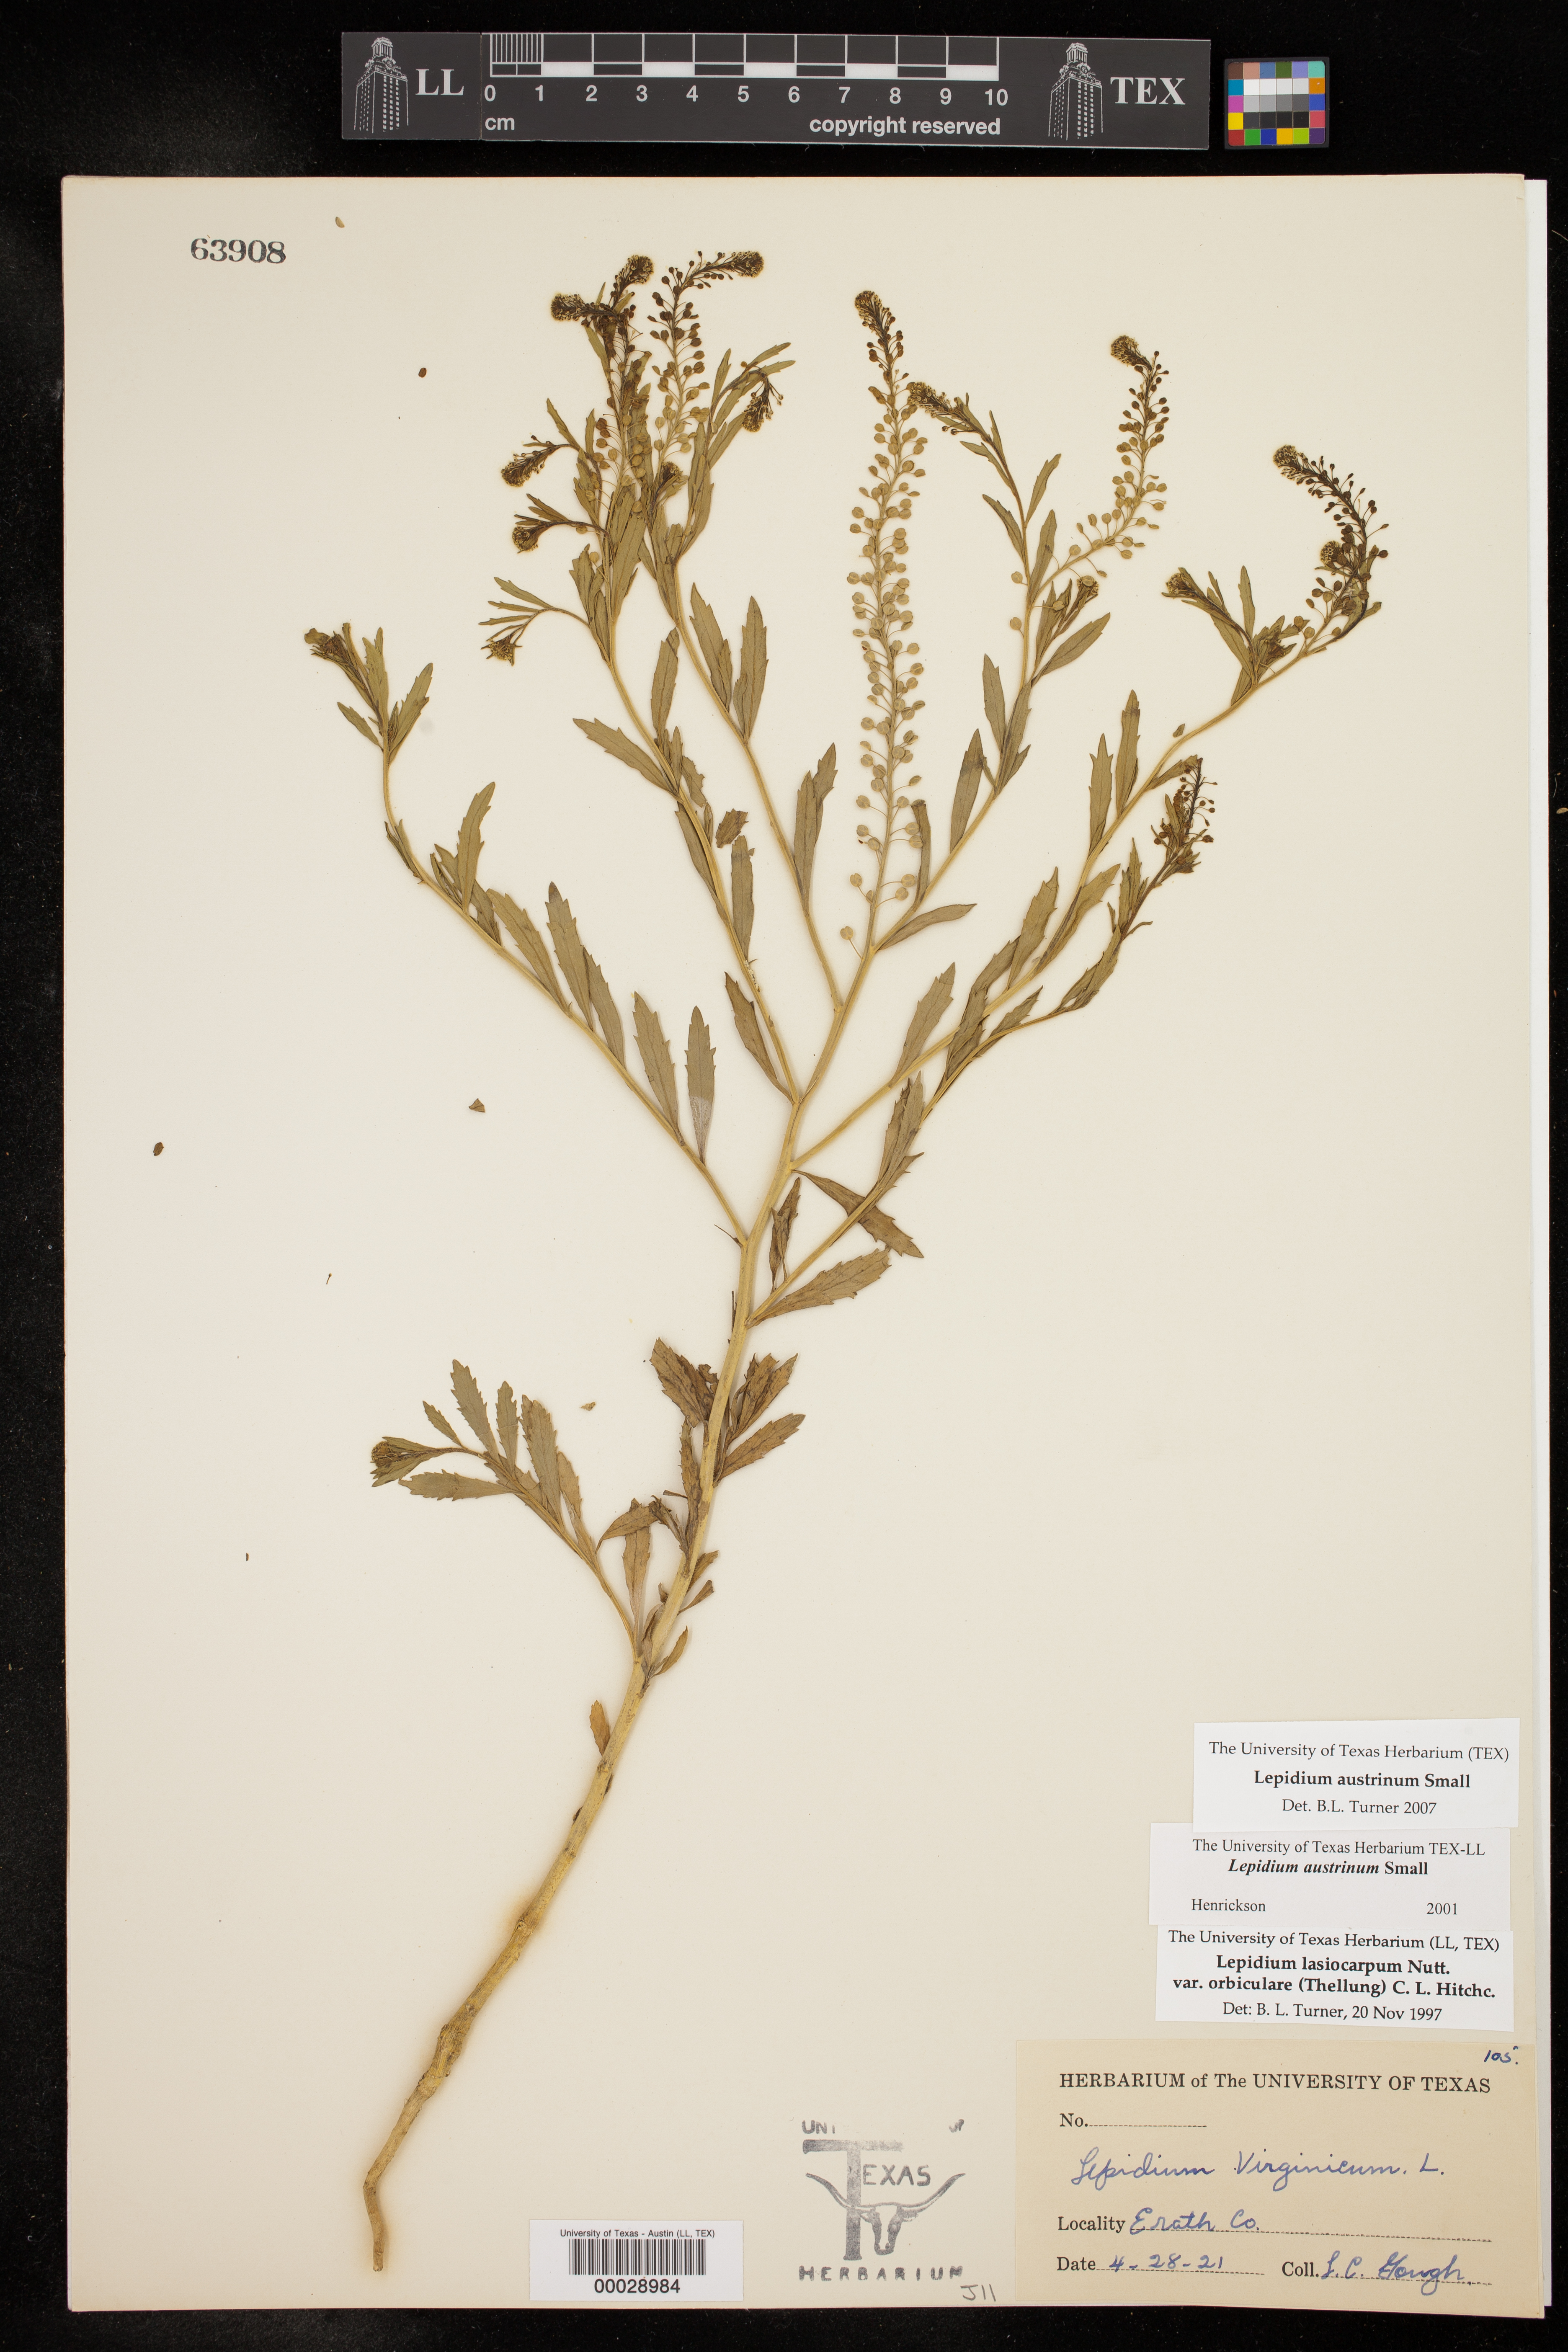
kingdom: Plantae
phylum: Tracheophyta
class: Magnoliopsida
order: Brassicales
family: Brassicaceae
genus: Lepidium
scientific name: Lepidium austrinum
